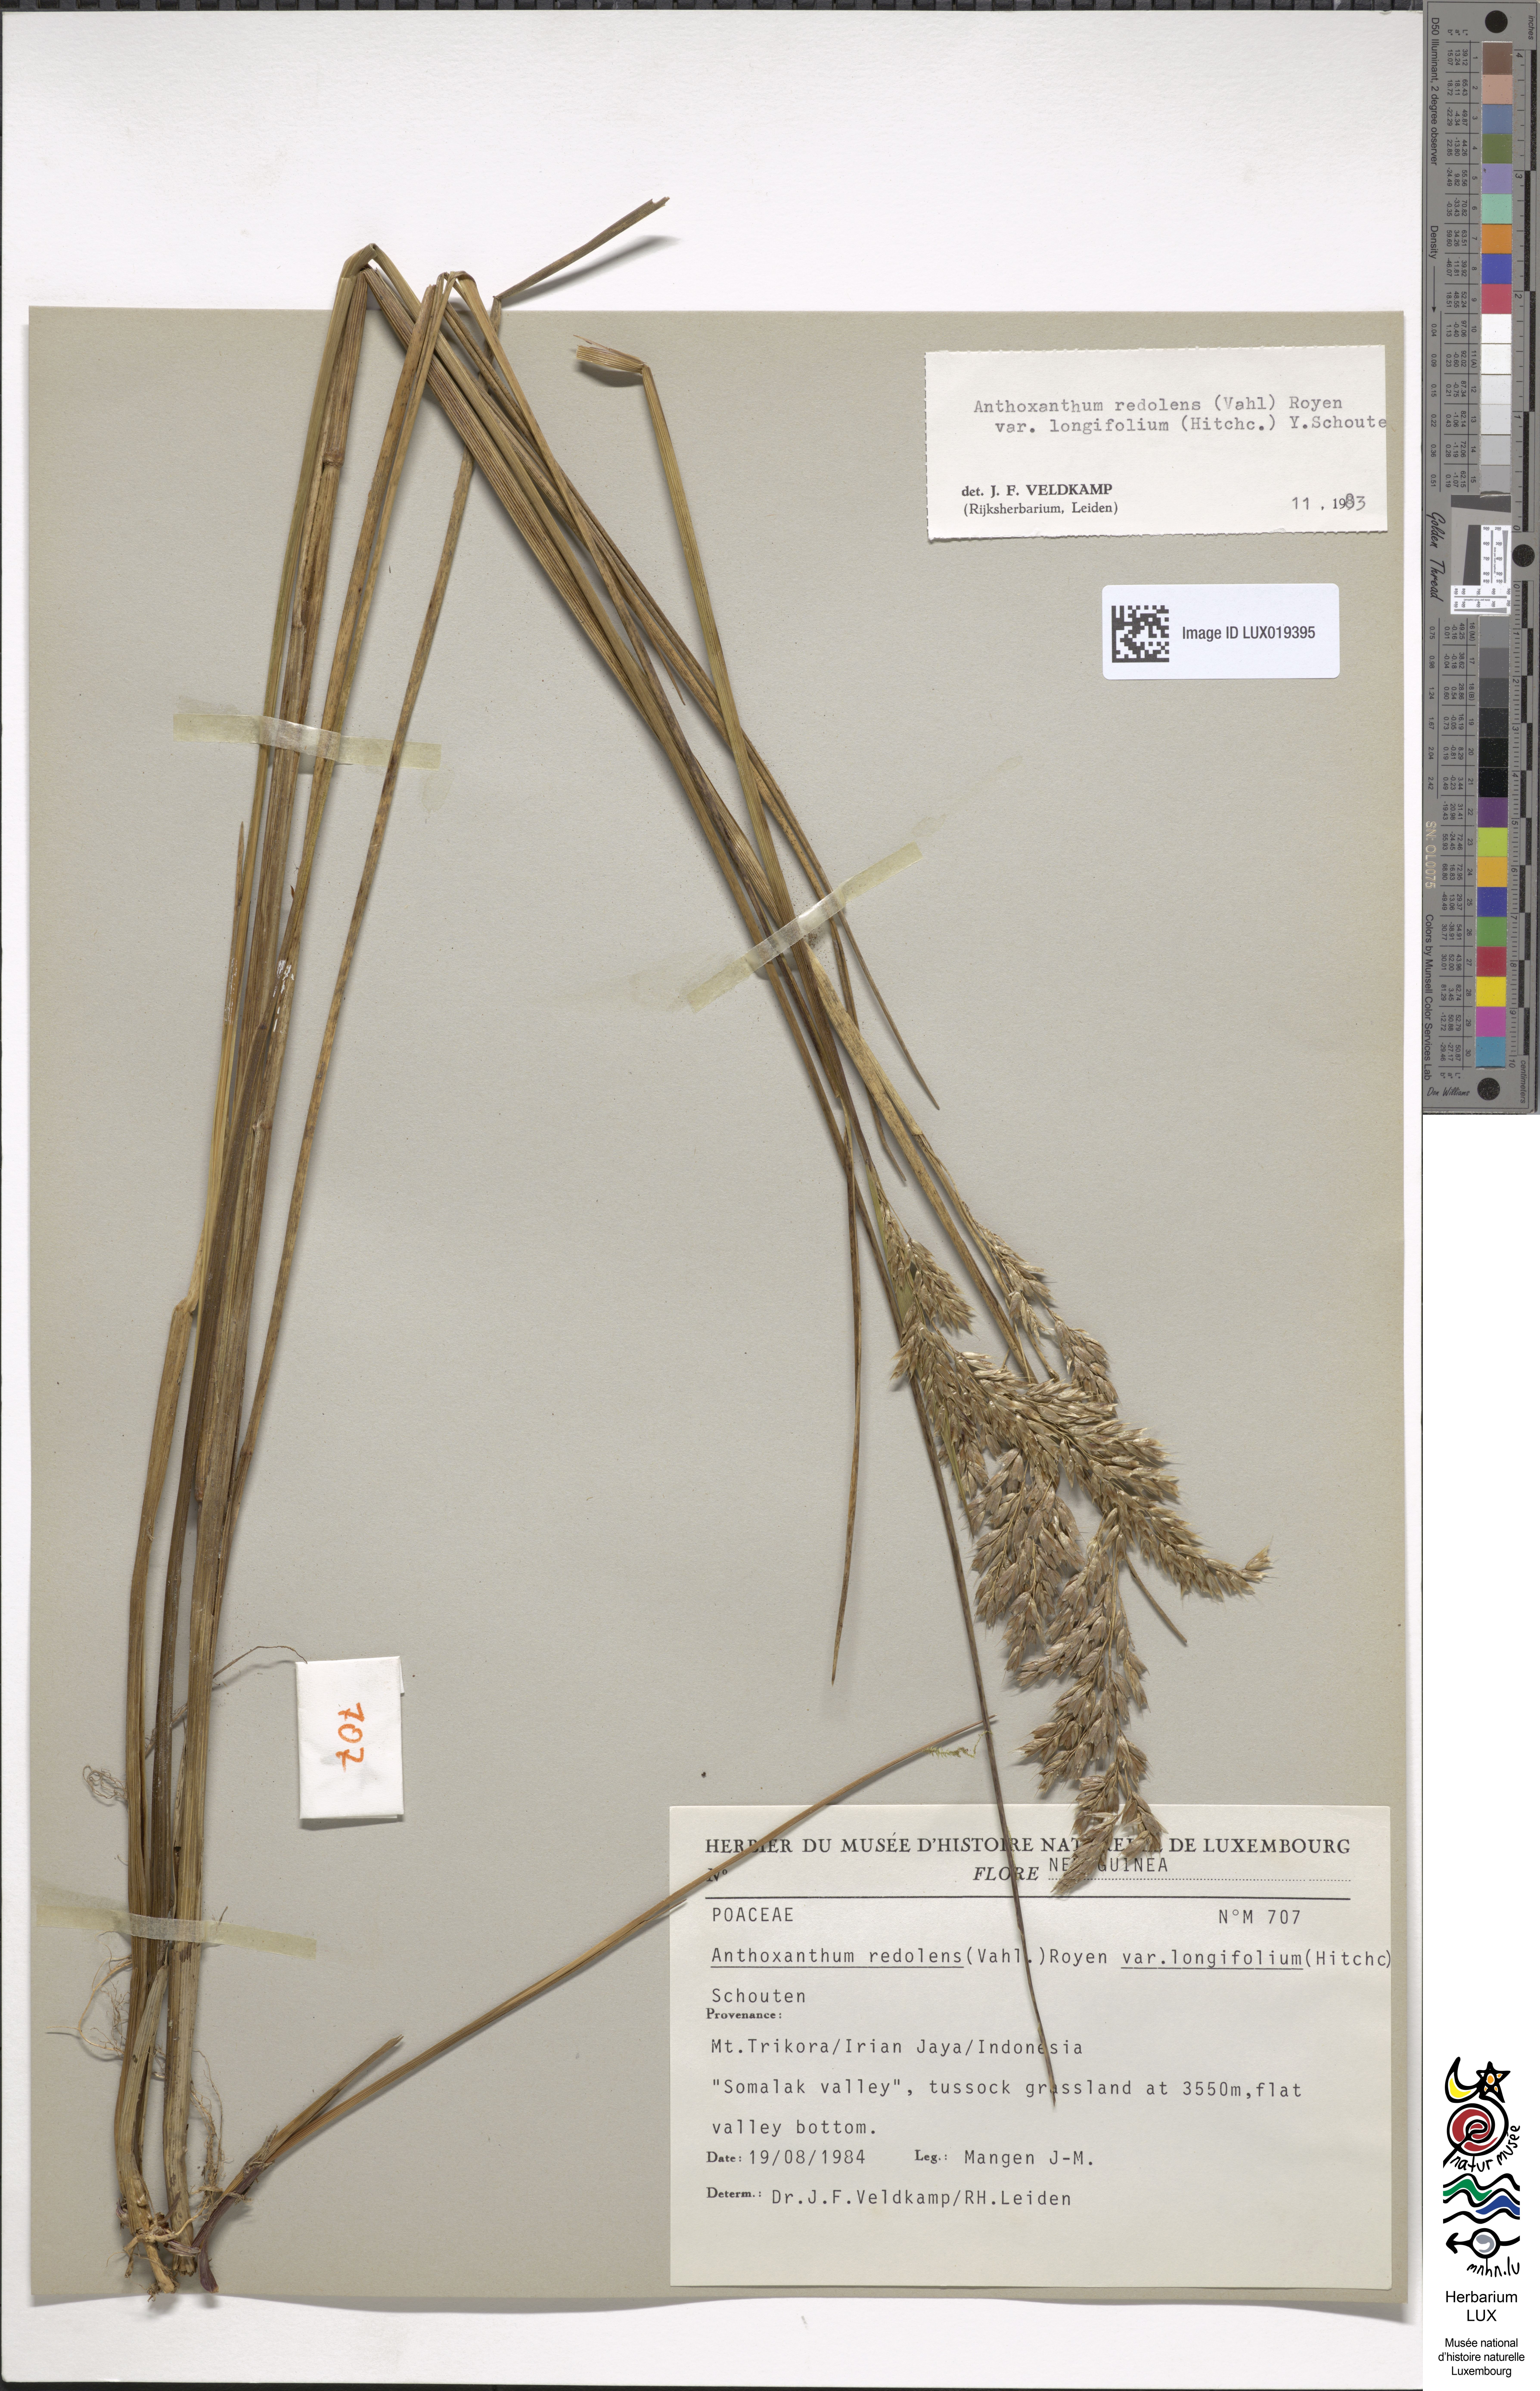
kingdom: Plantae
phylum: Tracheophyta
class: Liliopsida
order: Poales
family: Poaceae
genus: Anthoxanthum
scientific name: Anthoxanthum redolens
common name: Sweet holy grass
